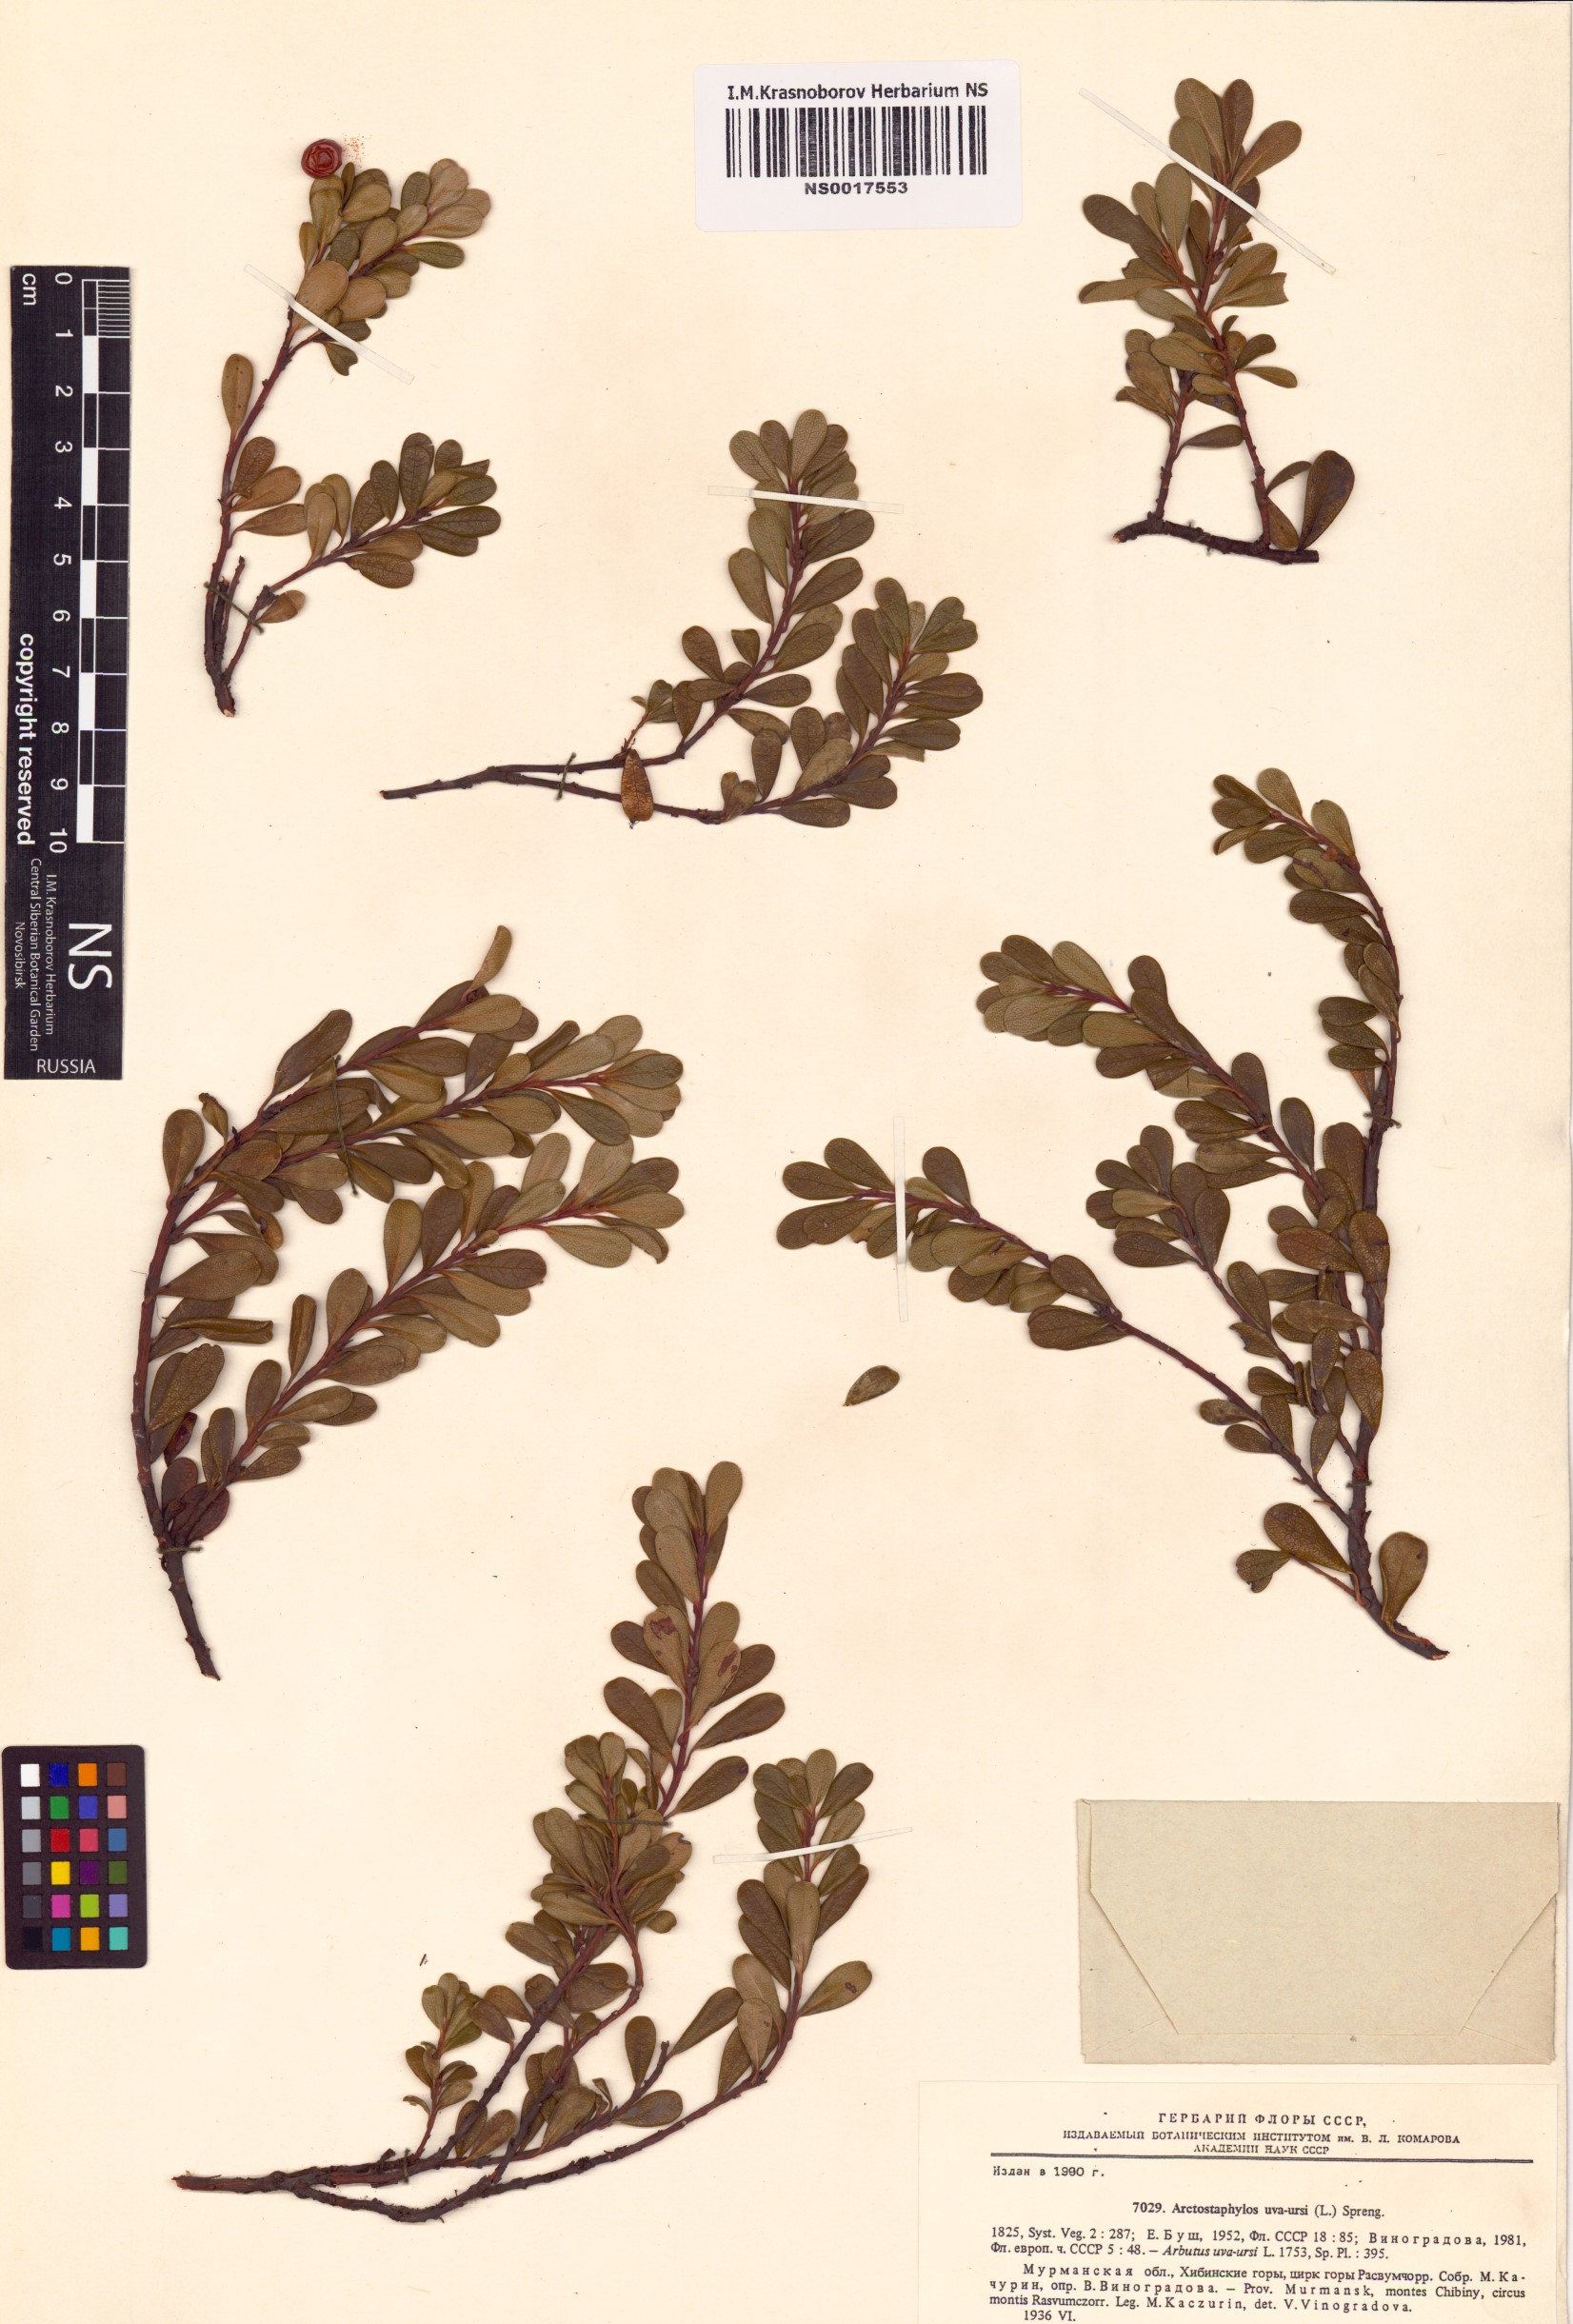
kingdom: Plantae
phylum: Tracheophyta
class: Magnoliopsida
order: Ericales
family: Ericaceae
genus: Arctostaphylos
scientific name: Arctostaphylos uva-ursi
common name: Bearberry
